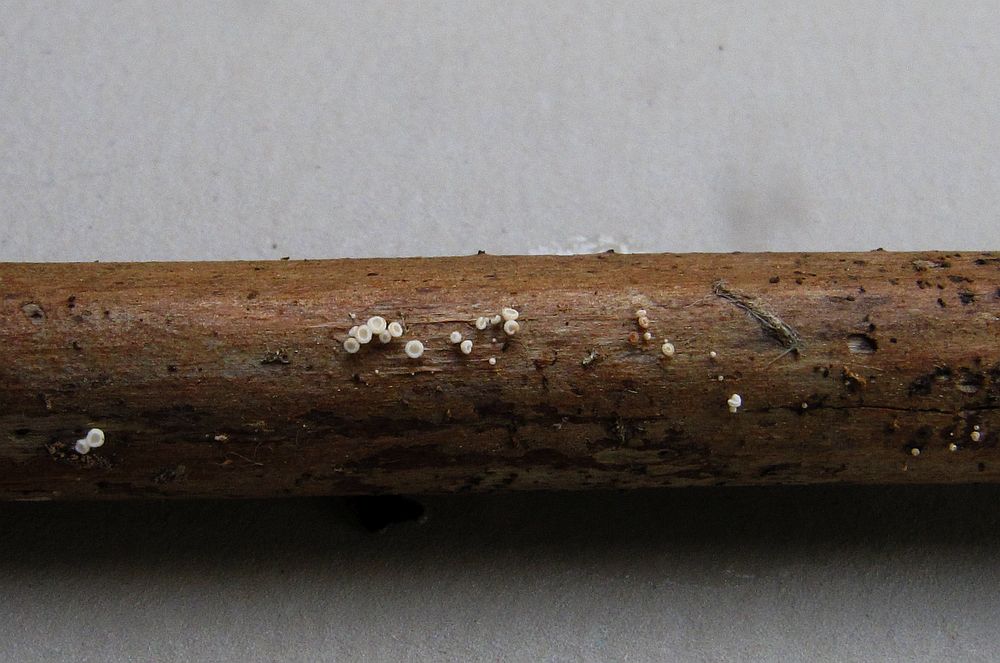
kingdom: Fungi
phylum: Ascomycota
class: Leotiomycetes
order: Helotiales
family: Lachnaceae
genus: Lachnum
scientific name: Lachnum nudipes
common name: mjødurt-frynseskive
